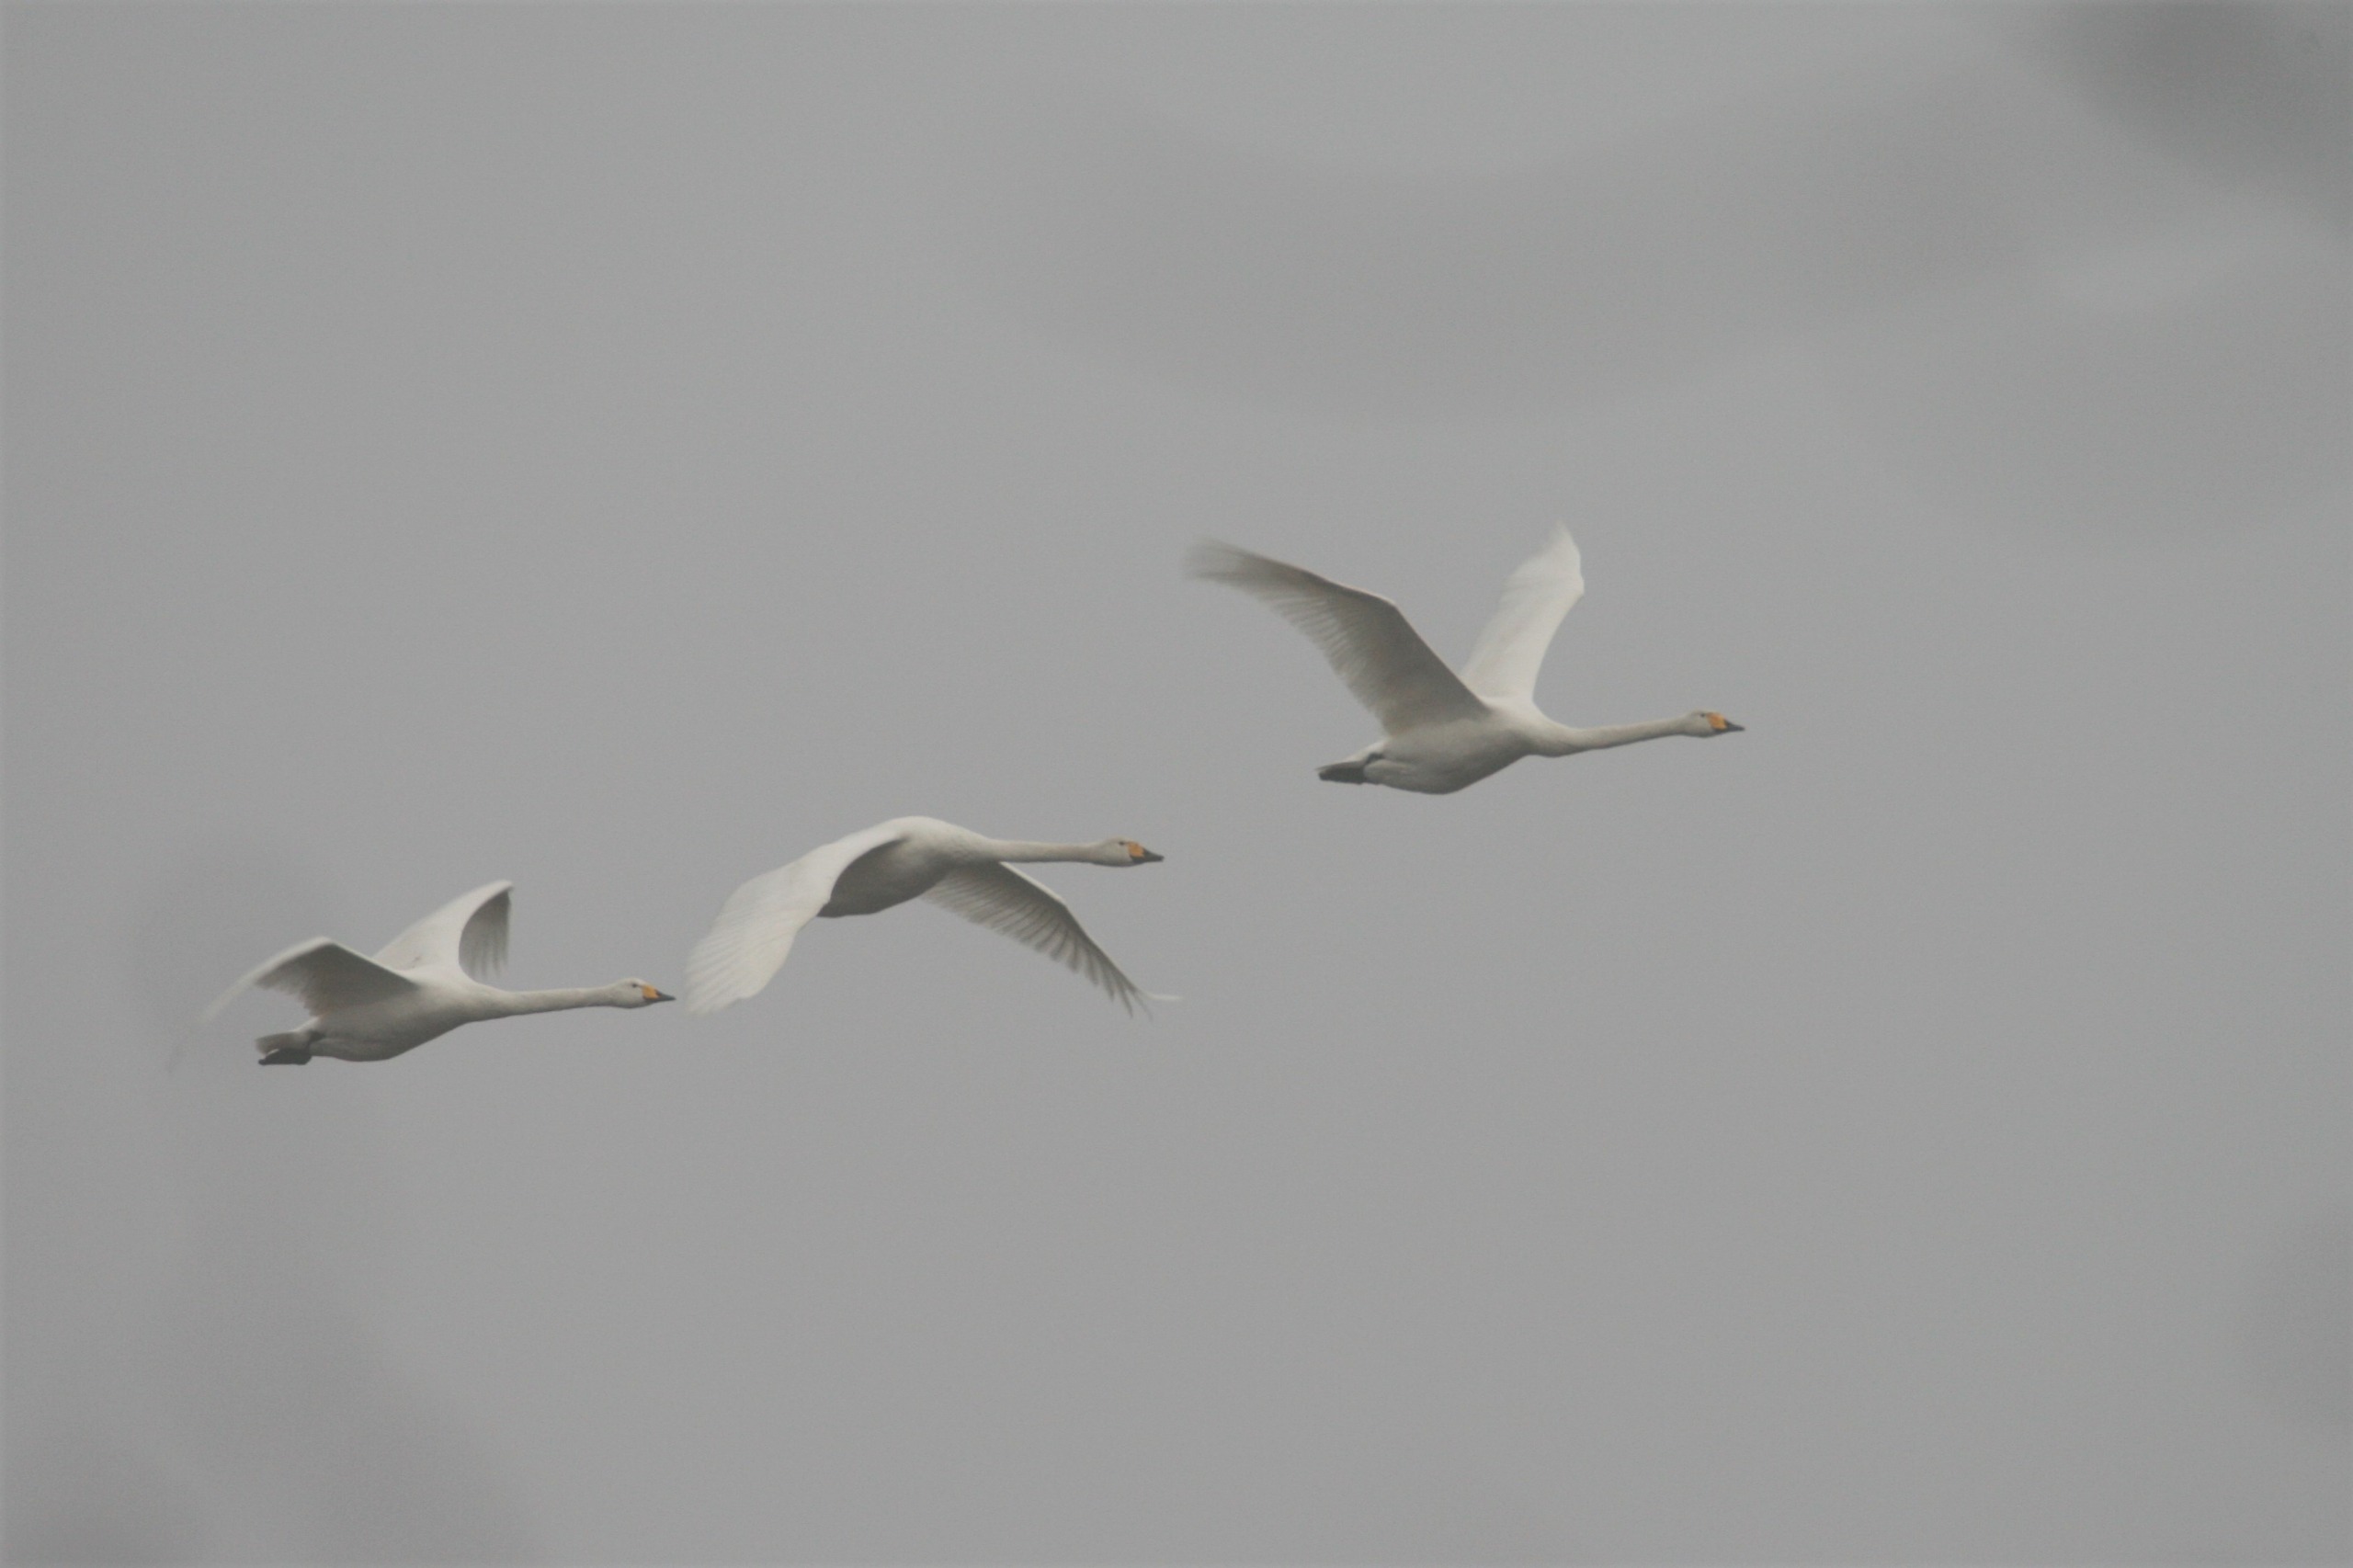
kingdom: Animalia
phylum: Chordata
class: Aves
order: Anseriformes
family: Anatidae
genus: Cygnus
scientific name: Cygnus cygnus
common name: Sangsvane
